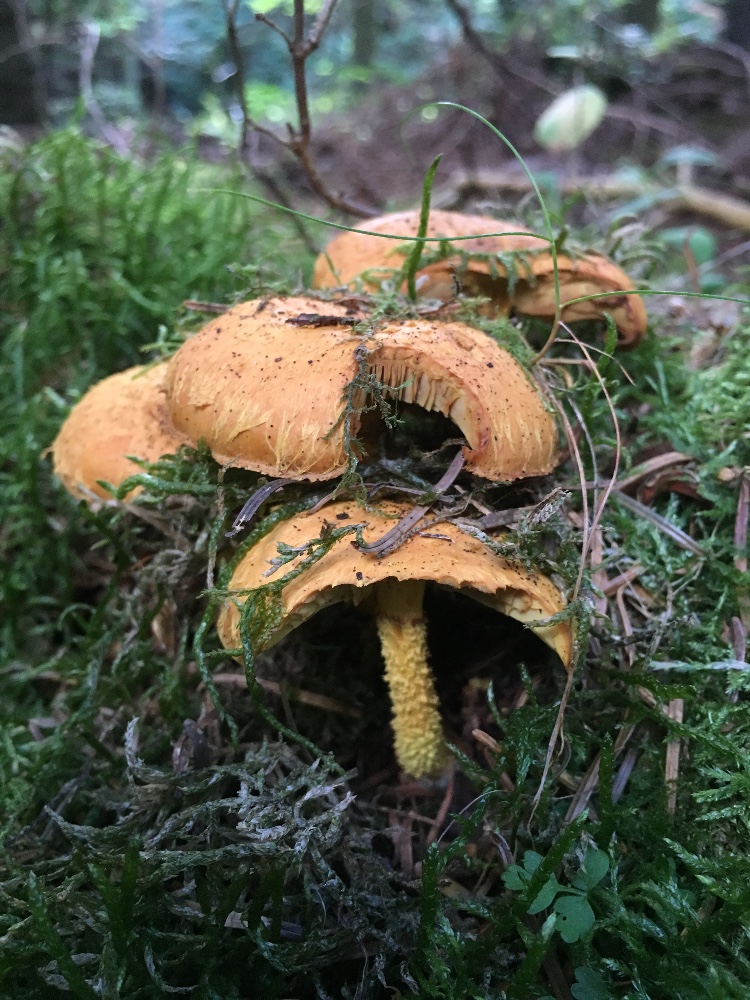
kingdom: Fungi
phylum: Basidiomycota
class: Agaricomycetes
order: Agaricales
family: Strophariaceae
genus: Pholiota
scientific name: Pholiota flammans
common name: flamme-skælhat
